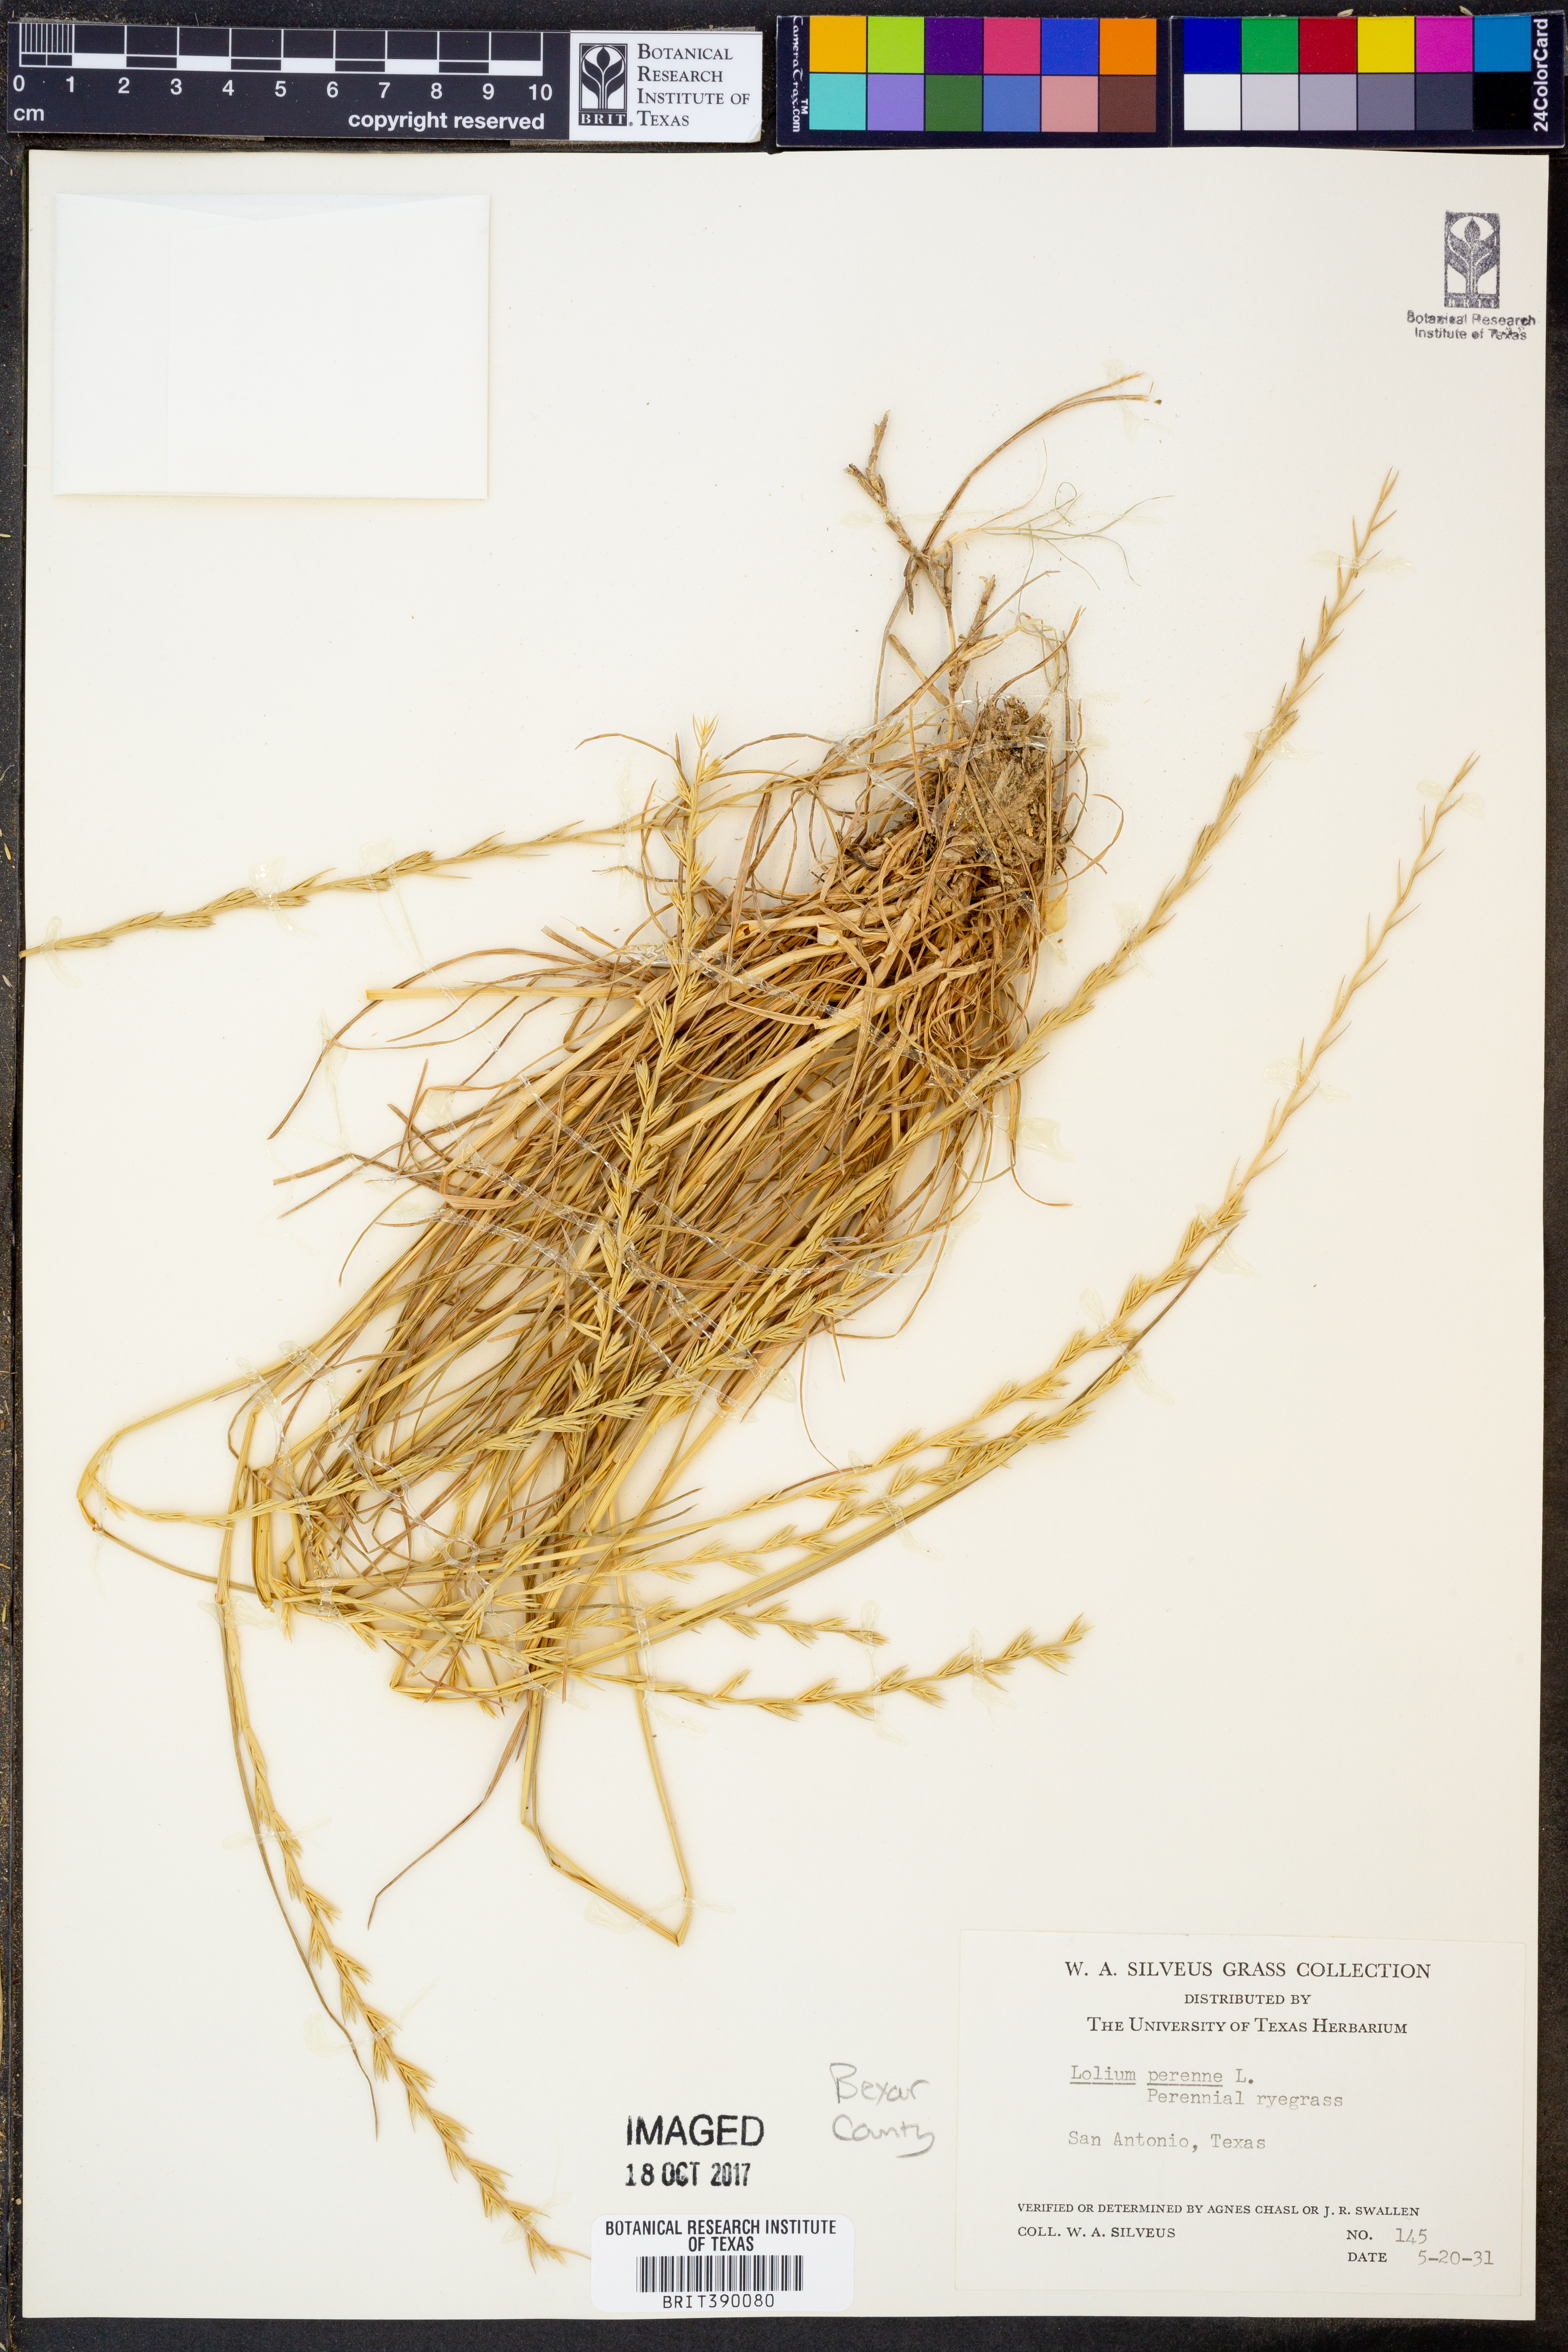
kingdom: Plantae
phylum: Tracheophyta
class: Liliopsida
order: Poales
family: Poaceae
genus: Lolium
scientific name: Lolium perenne
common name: Perennial ryegrass
